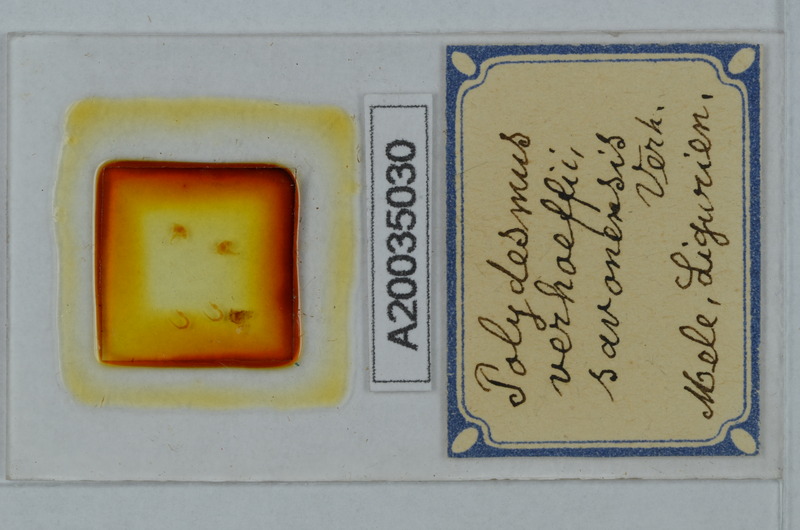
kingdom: Animalia
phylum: Arthropoda
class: Diplopoda
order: Polydesmida
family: Polydesmidae
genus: Polydesmus
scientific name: Polydesmus angustus
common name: Flat millipede
